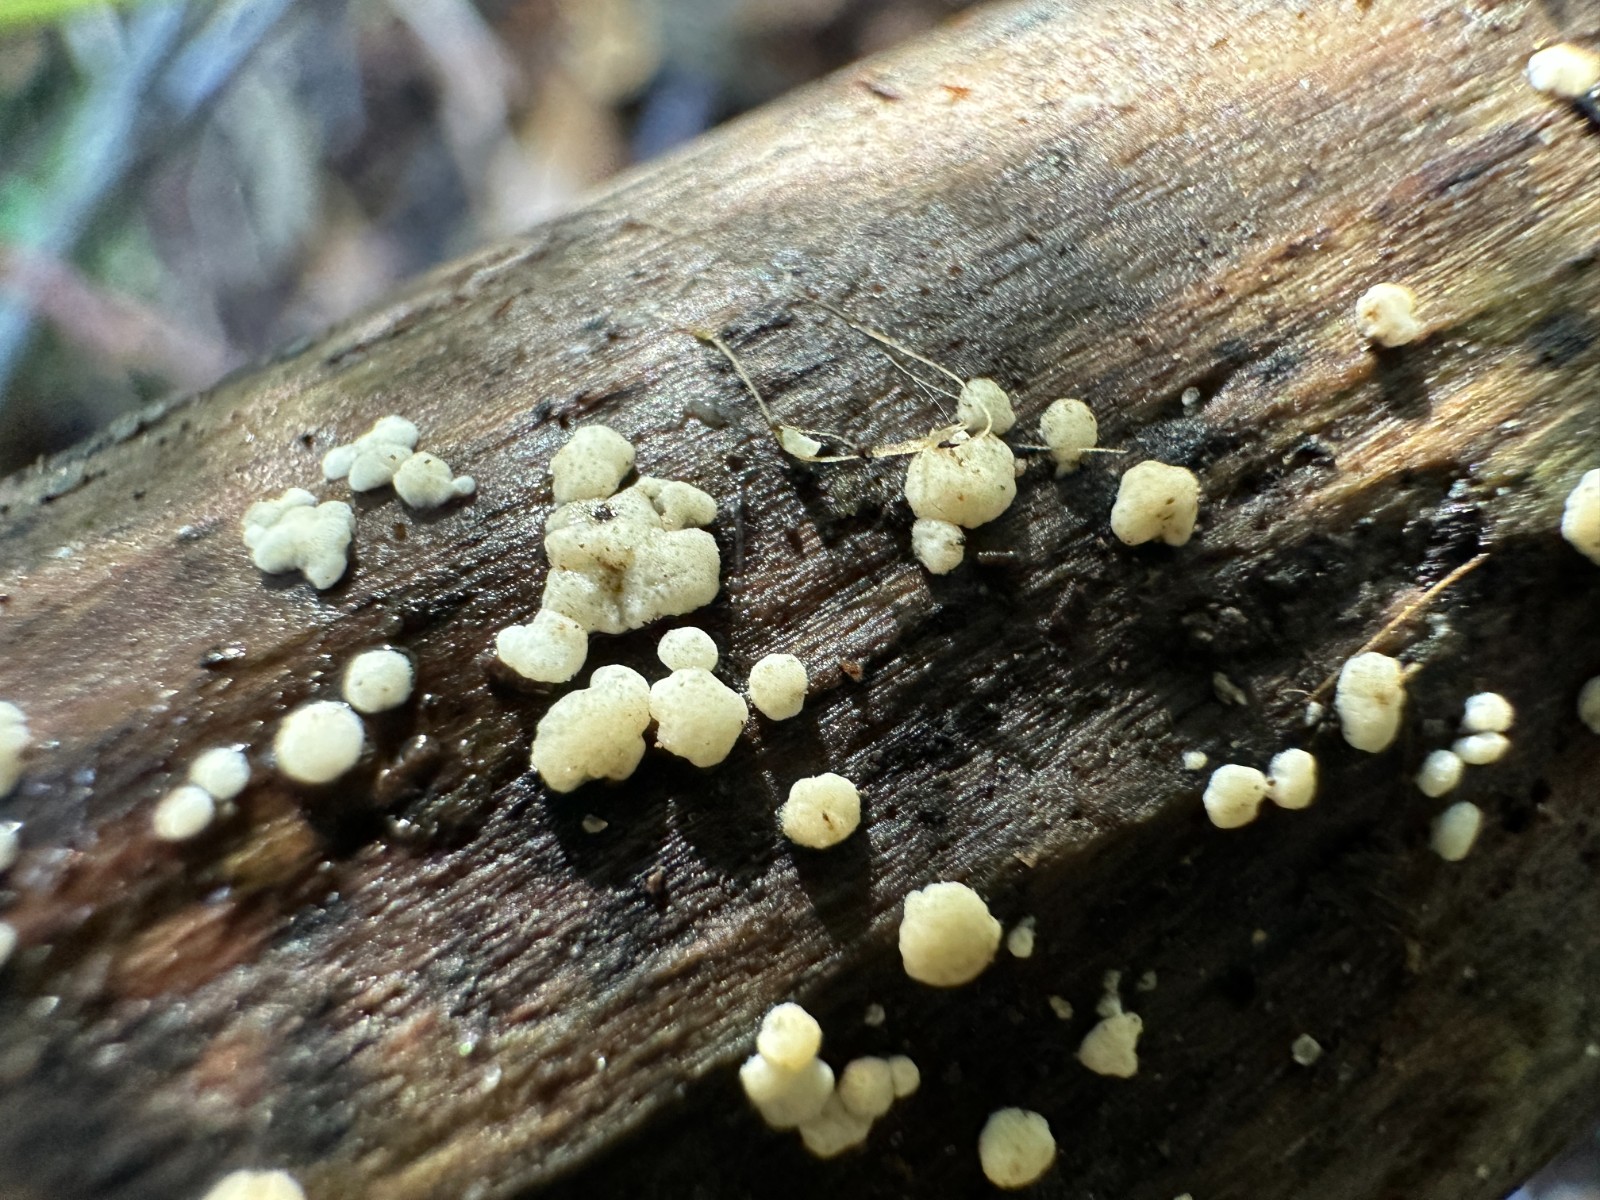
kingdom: Fungi
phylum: Ascomycota
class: Sordariomycetes
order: Hypocreales
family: Hypocreaceae
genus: Trichoderma
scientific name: Trichoderma
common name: kødkerne
